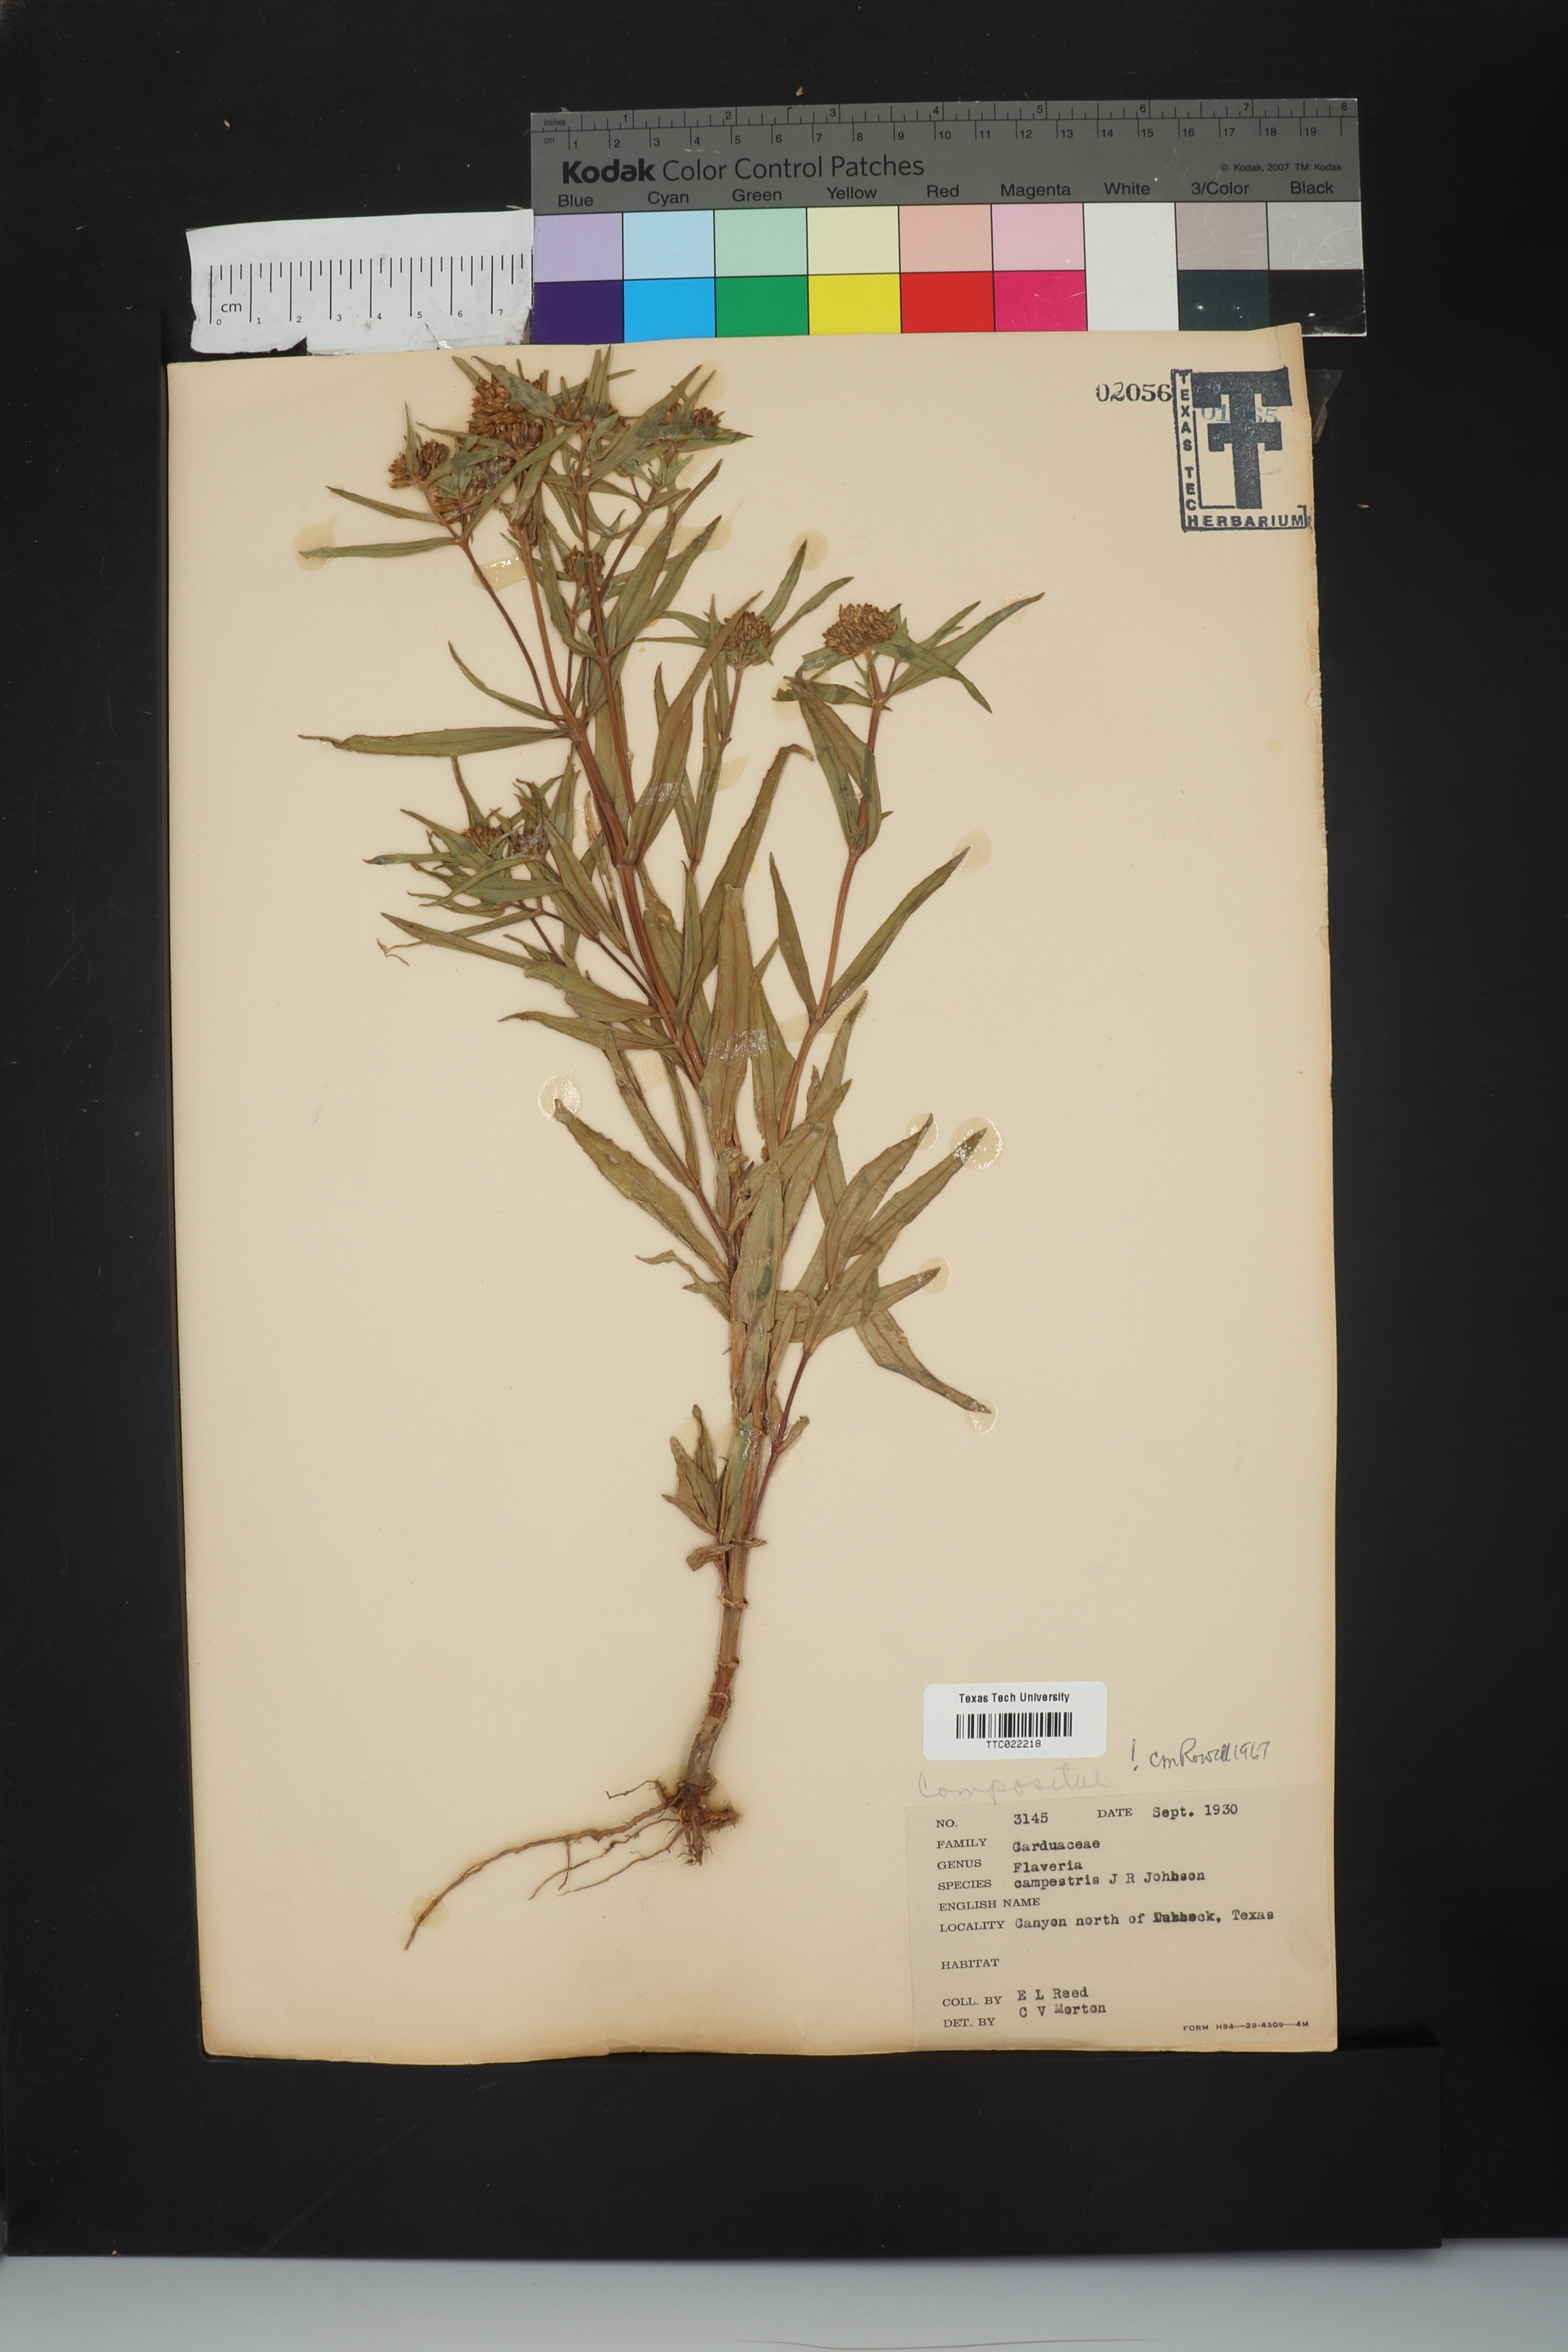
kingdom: Plantae
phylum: Tracheophyta
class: Magnoliopsida
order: Asterales
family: Asteraceae
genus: Flaveria
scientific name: Flaveria campestris
